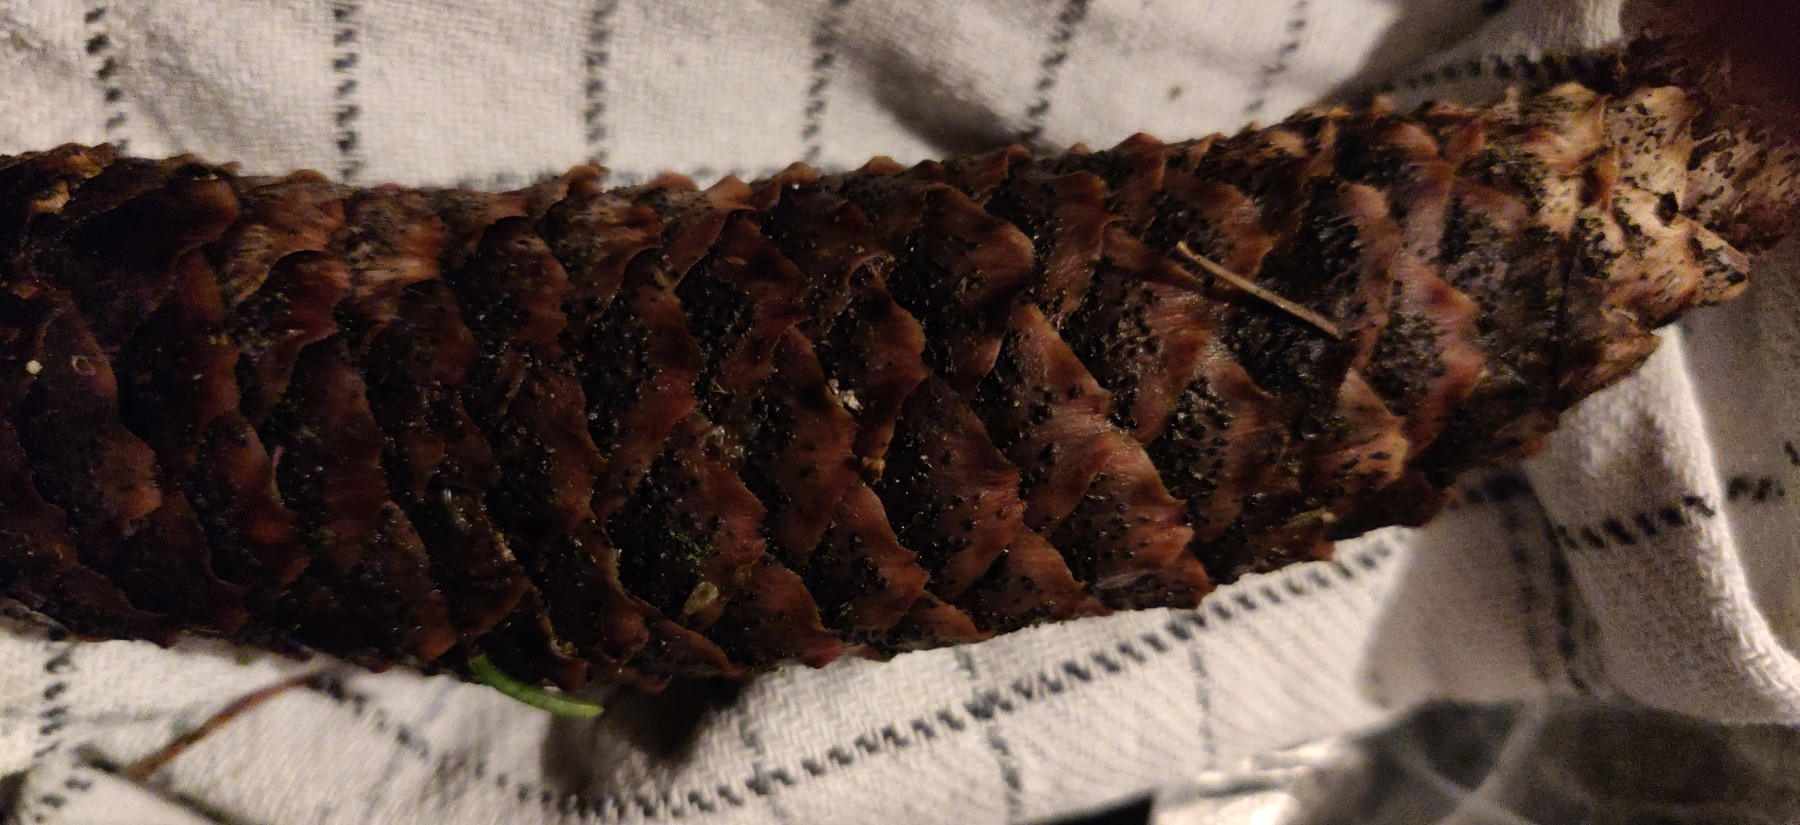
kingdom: Fungi
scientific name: Fungi
